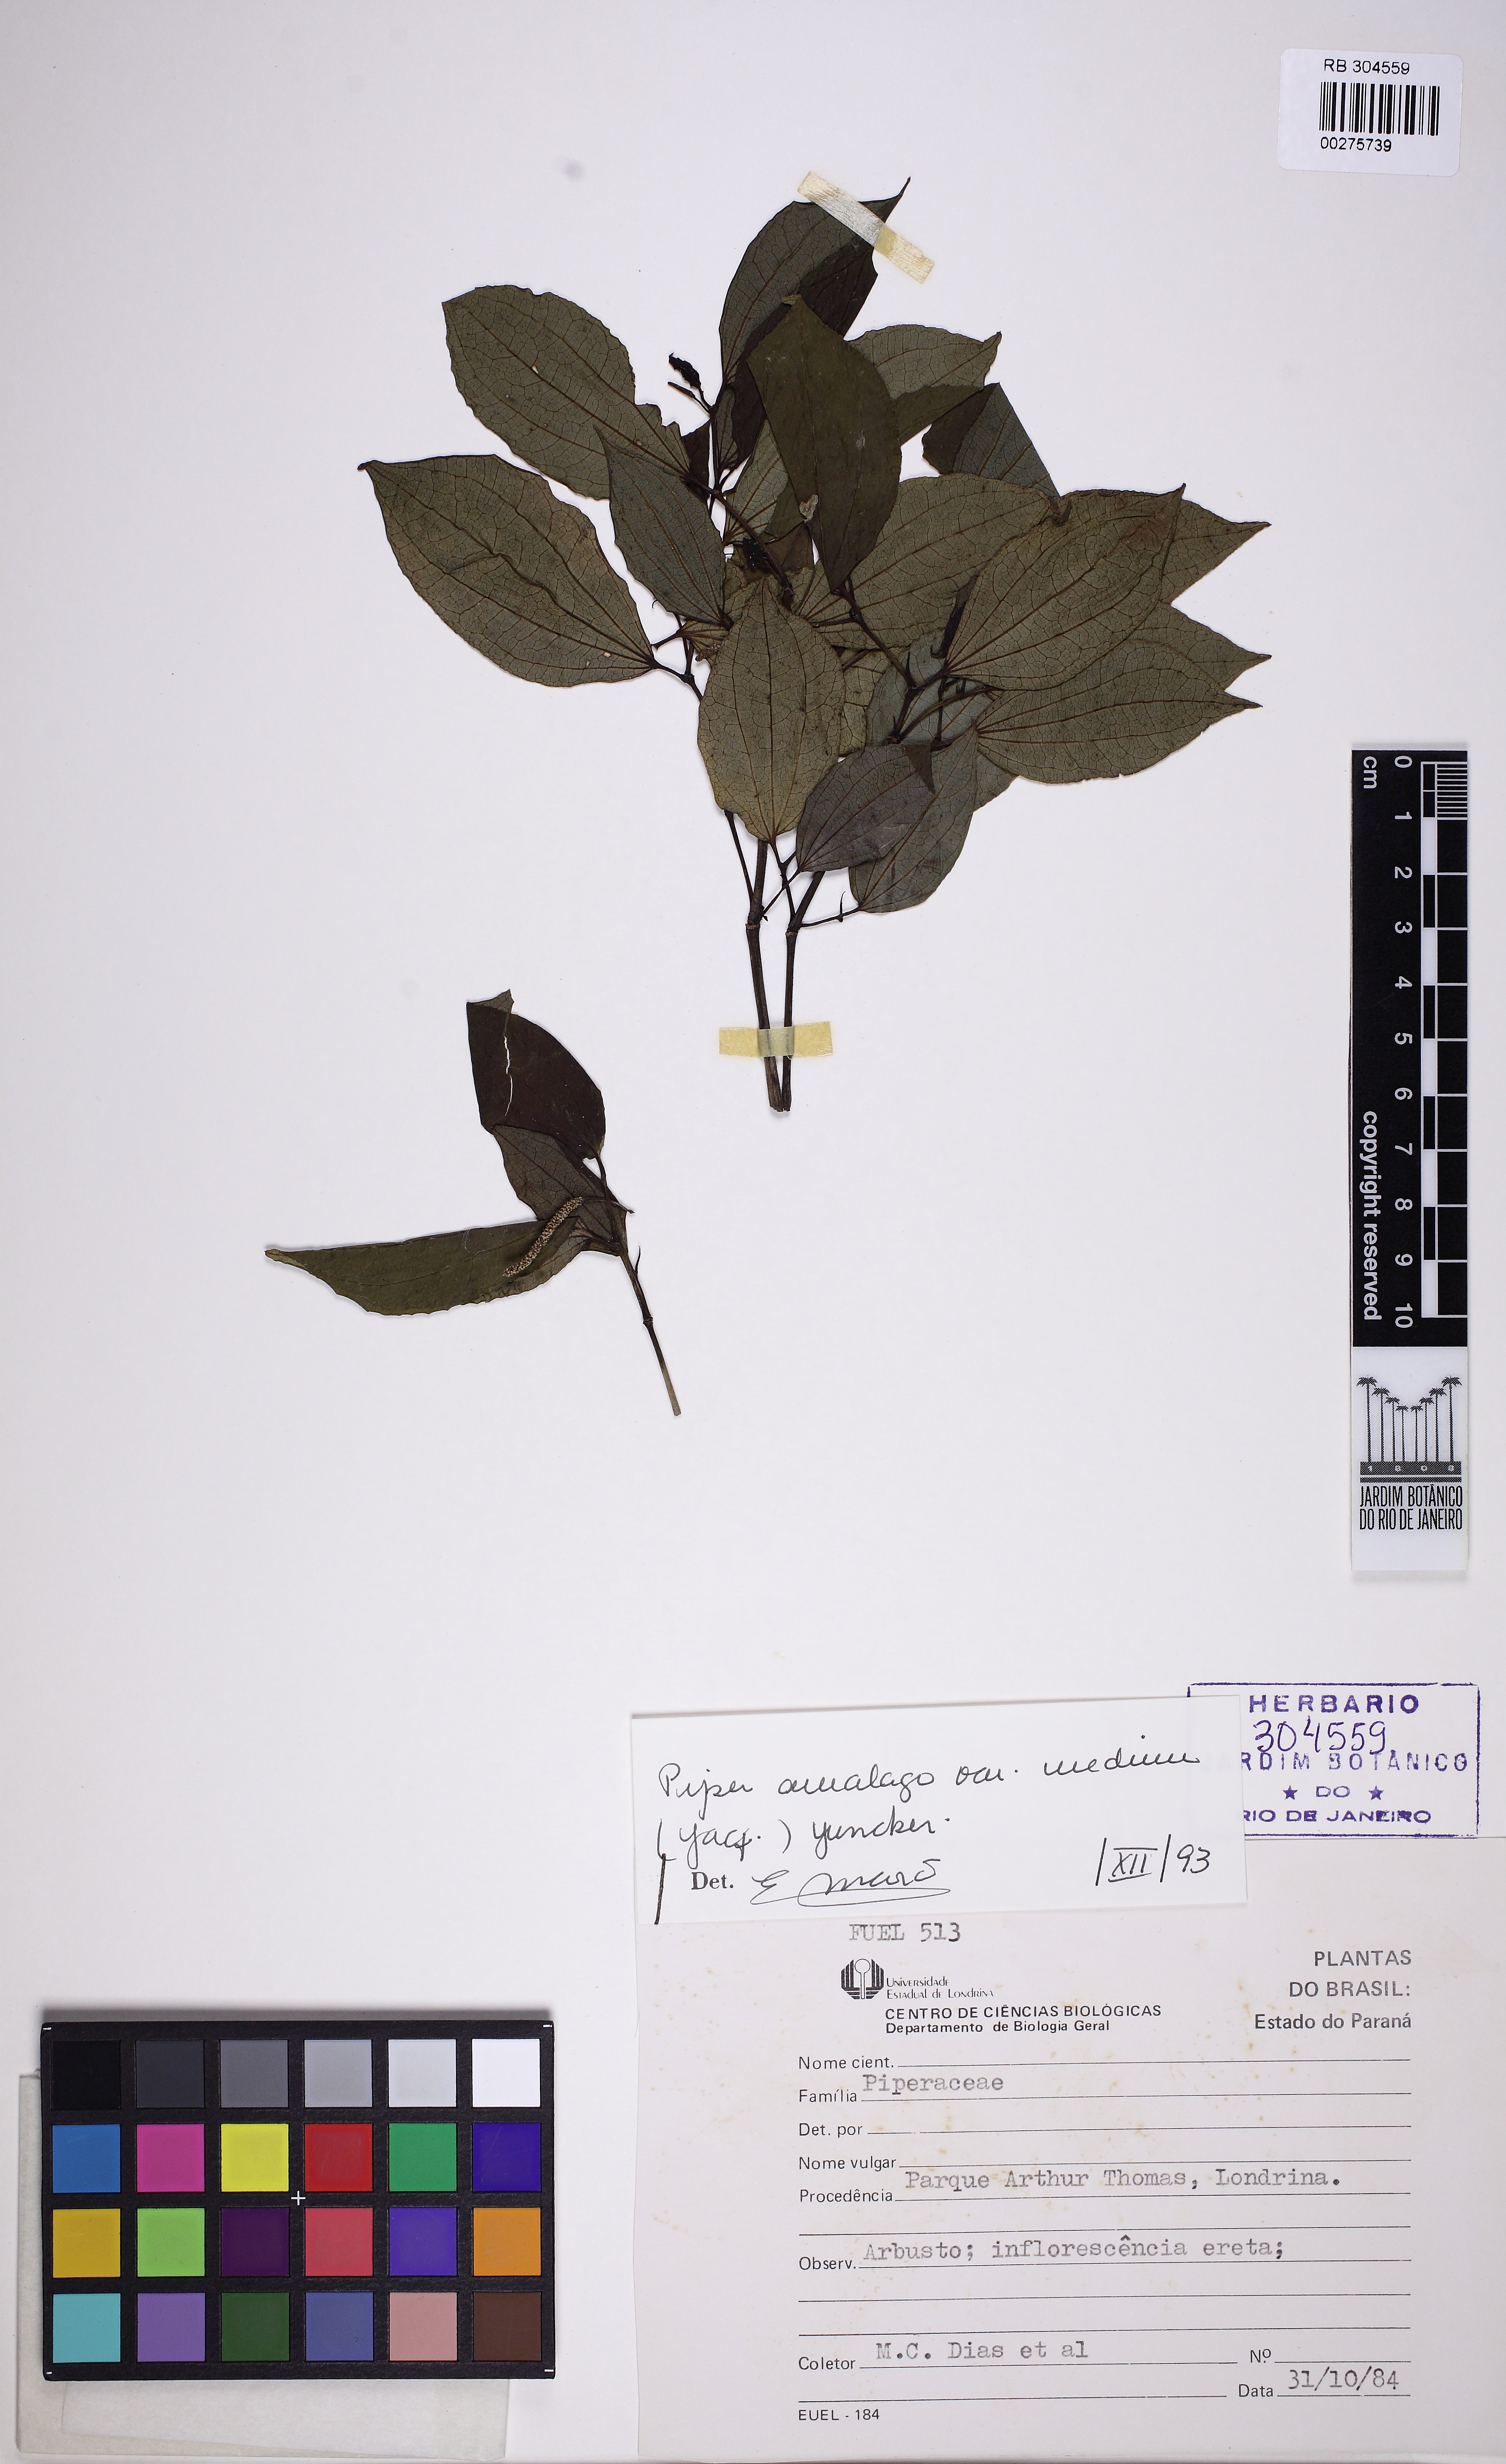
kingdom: Plantae
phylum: Tracheophyta
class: Magnoliopsida
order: Piperales
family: Piperaceae
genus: Piper
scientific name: Piper amalago
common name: Pepper-elder
